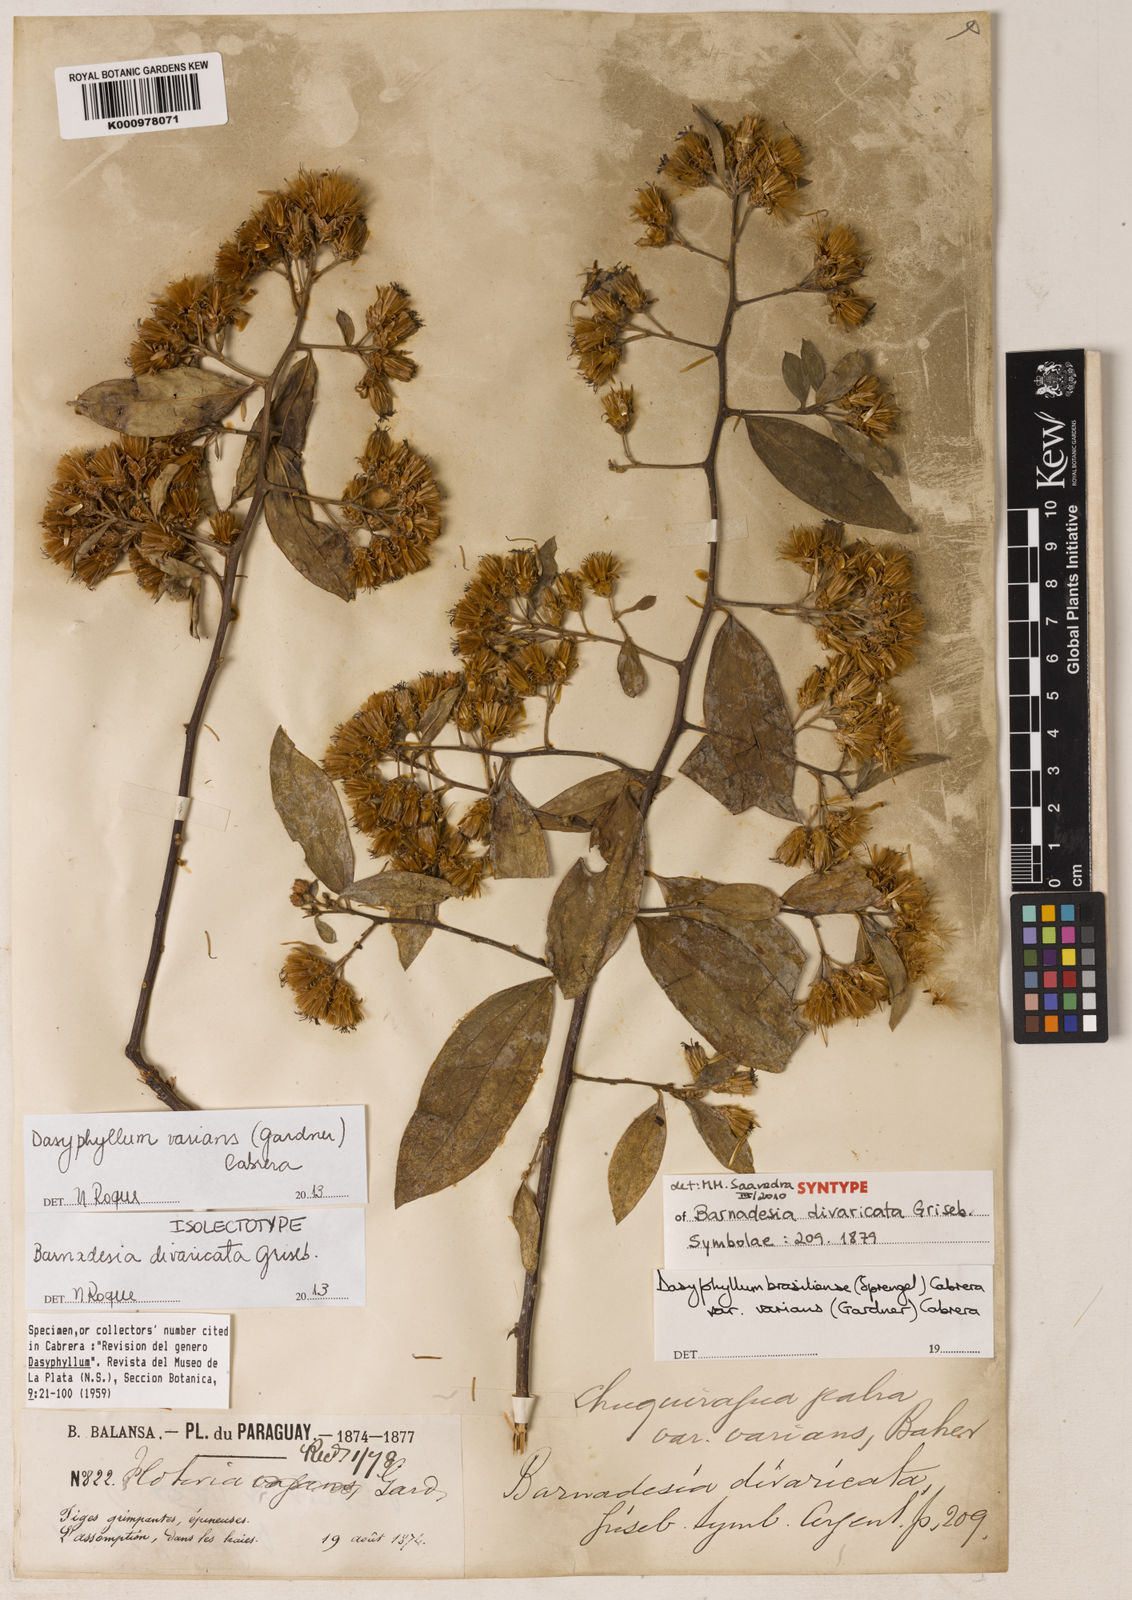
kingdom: Plantae
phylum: Tracheophyta
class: Magnoliopsida
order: Asterales
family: Asteraceae
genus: Dasyphyllum
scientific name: Dasyphyllum varians
